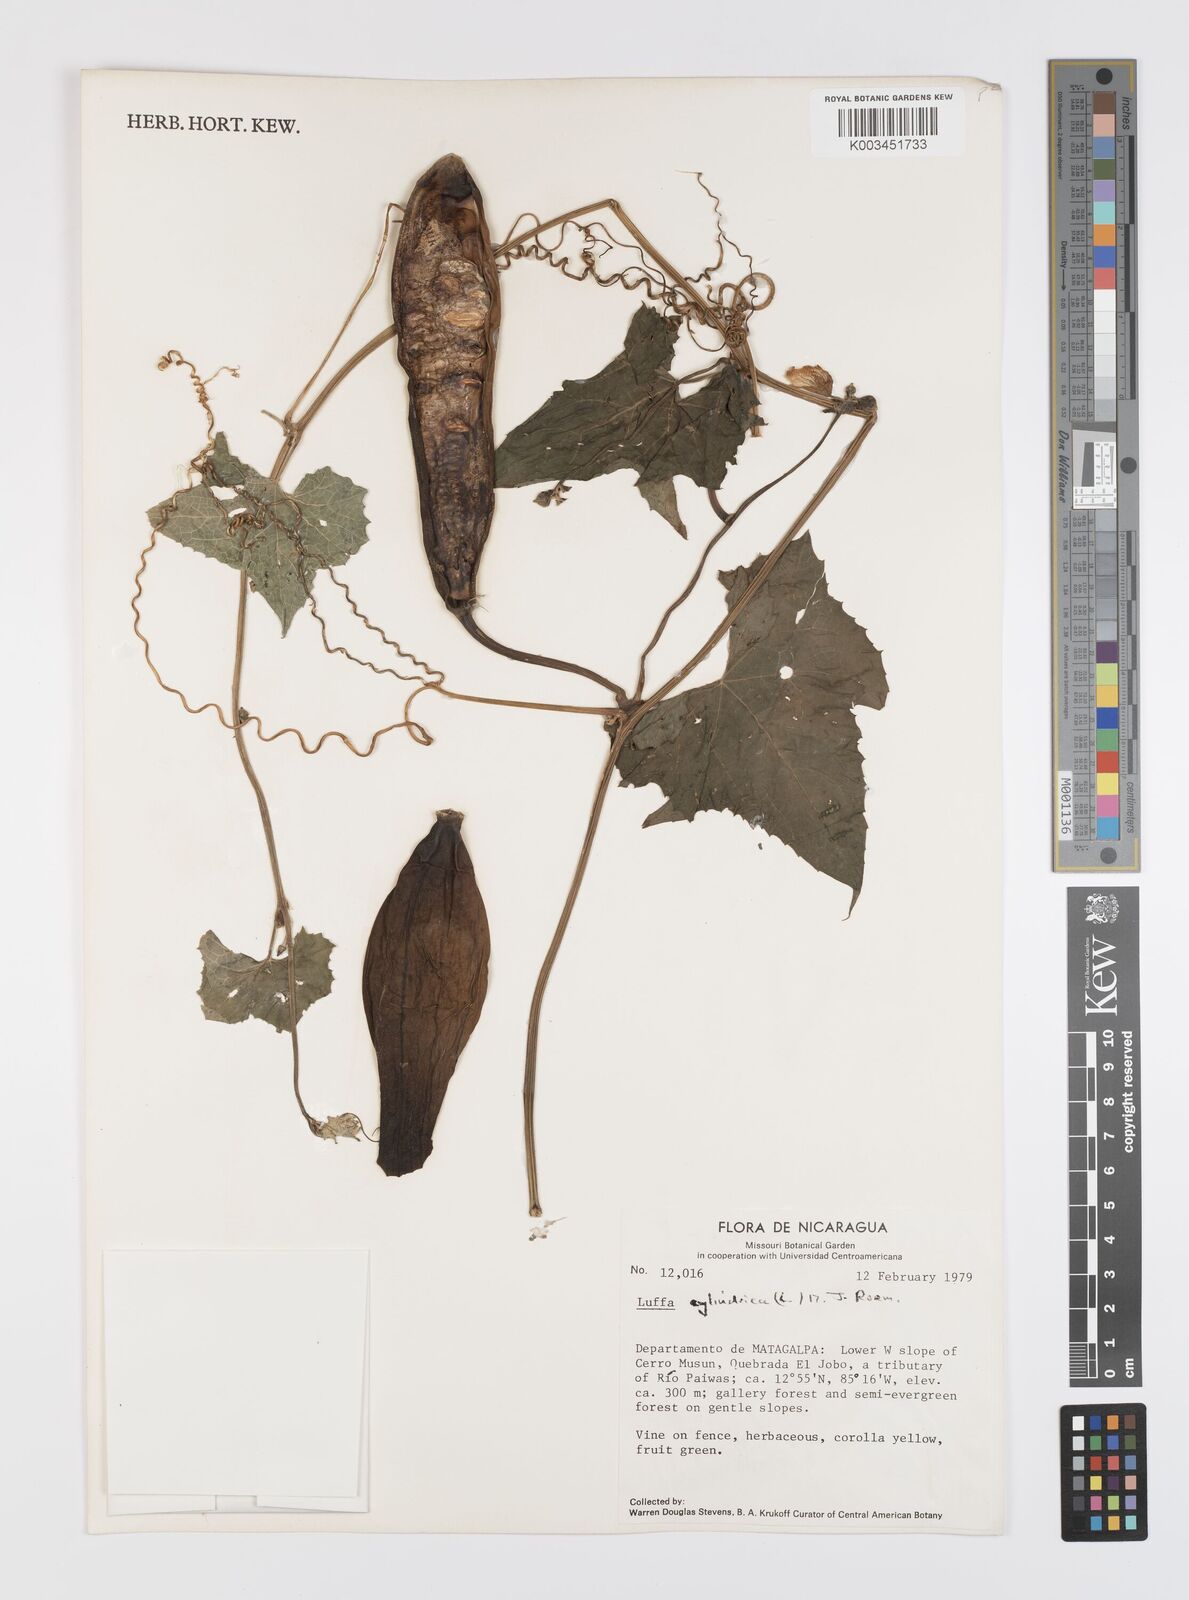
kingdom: Plantae
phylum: Tracheophyta
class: Magnoliopsida
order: Cucurbitales
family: Cucurbitaceae
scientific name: Cucurbitaceae
